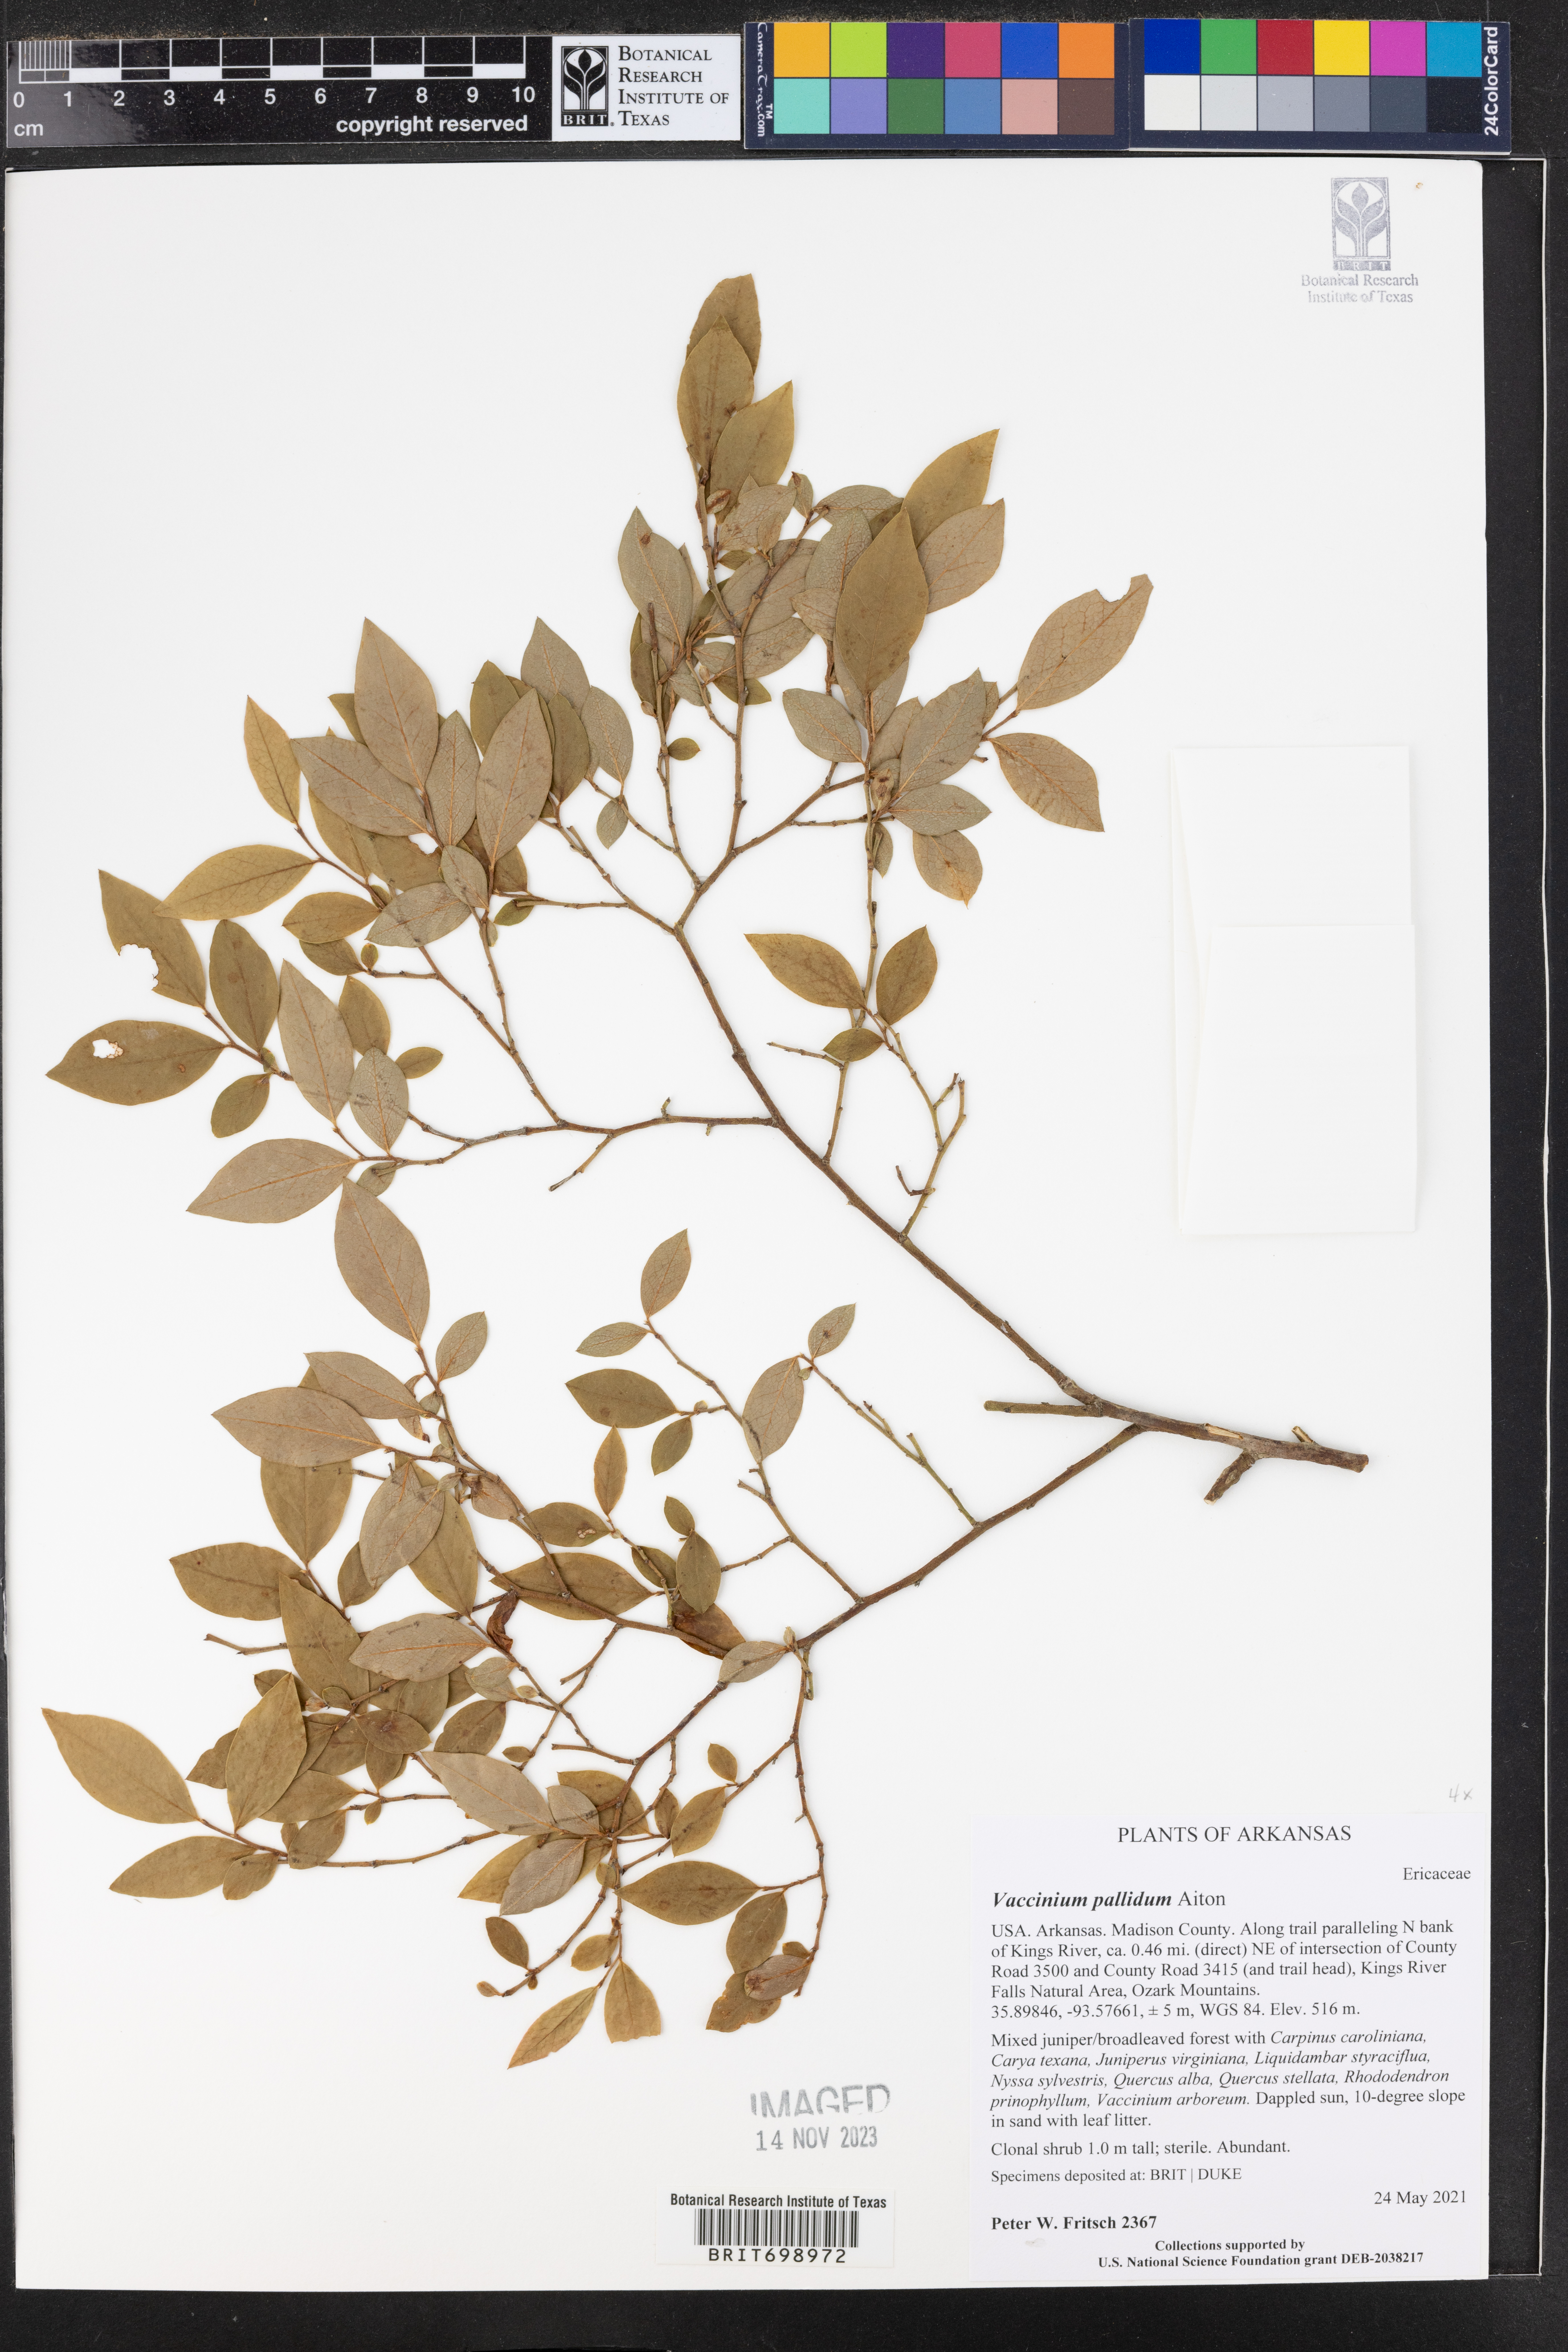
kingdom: Plantae
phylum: Tracheophyta
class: Magnoliopsida
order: Ericales
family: Ericaceae
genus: Vaccinium
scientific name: Vaccinium pallidum
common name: Blue ridge blueberry
